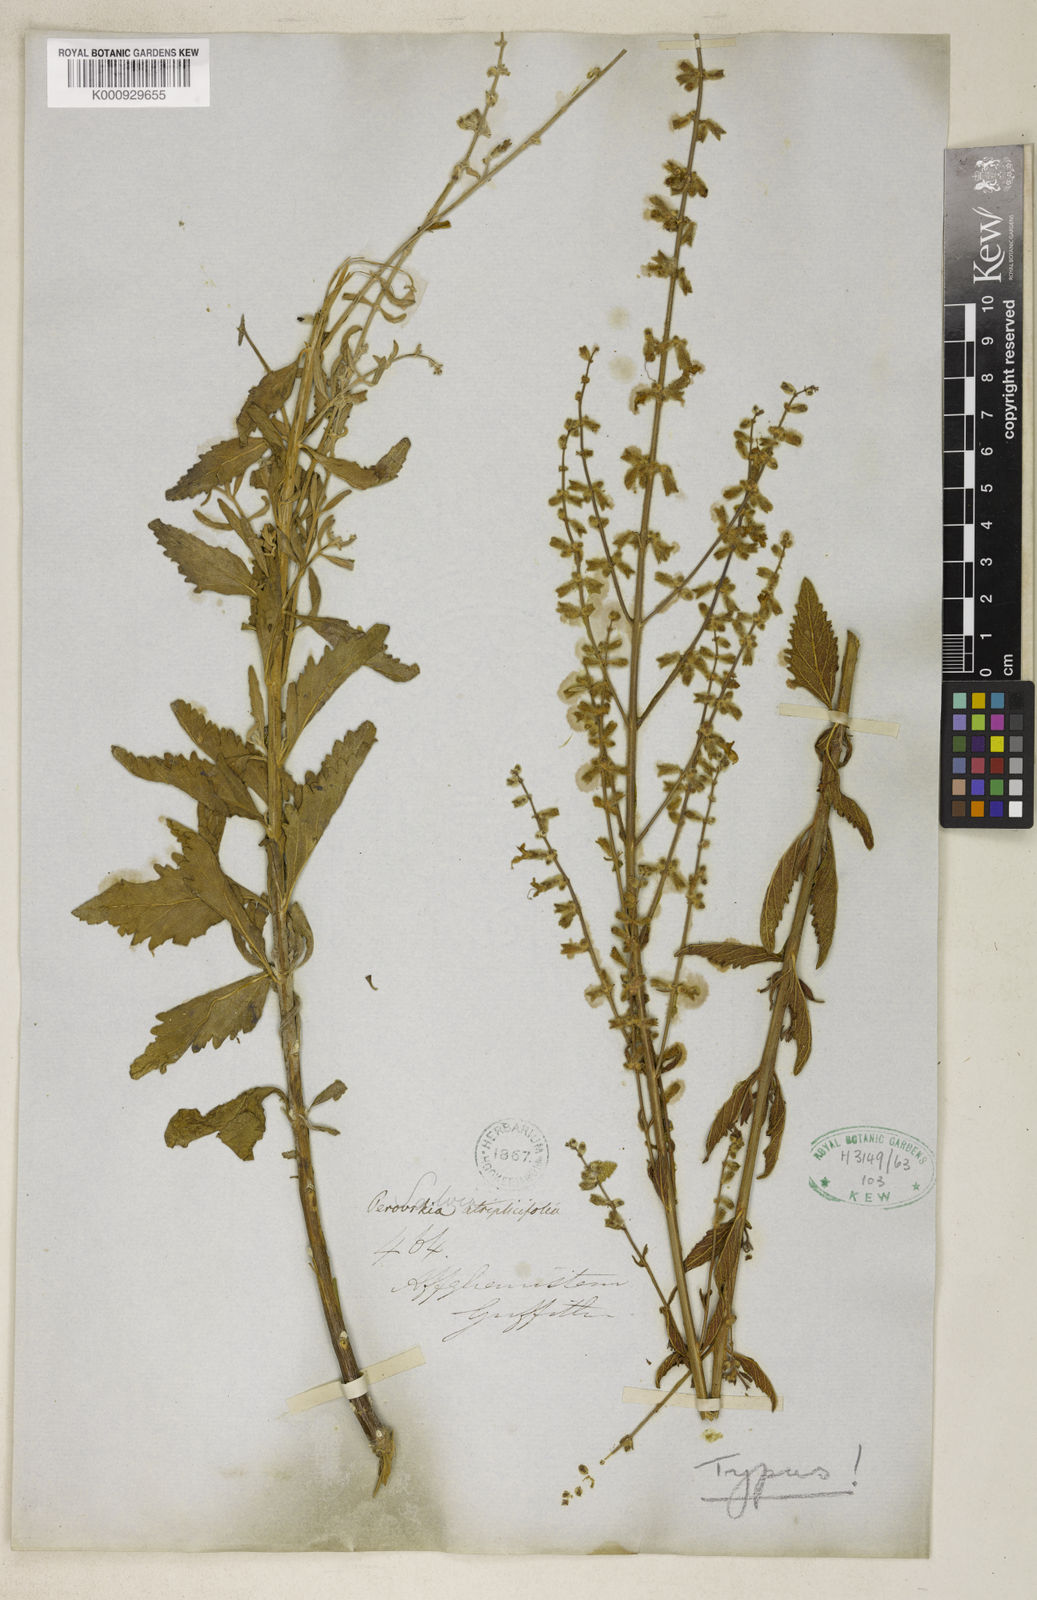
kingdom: Plantae
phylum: Tracheophyta
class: Magnoliopsida
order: Lamiales
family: Lamiaceae
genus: Salvia
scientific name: Salvia yangii
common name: Russian sage
